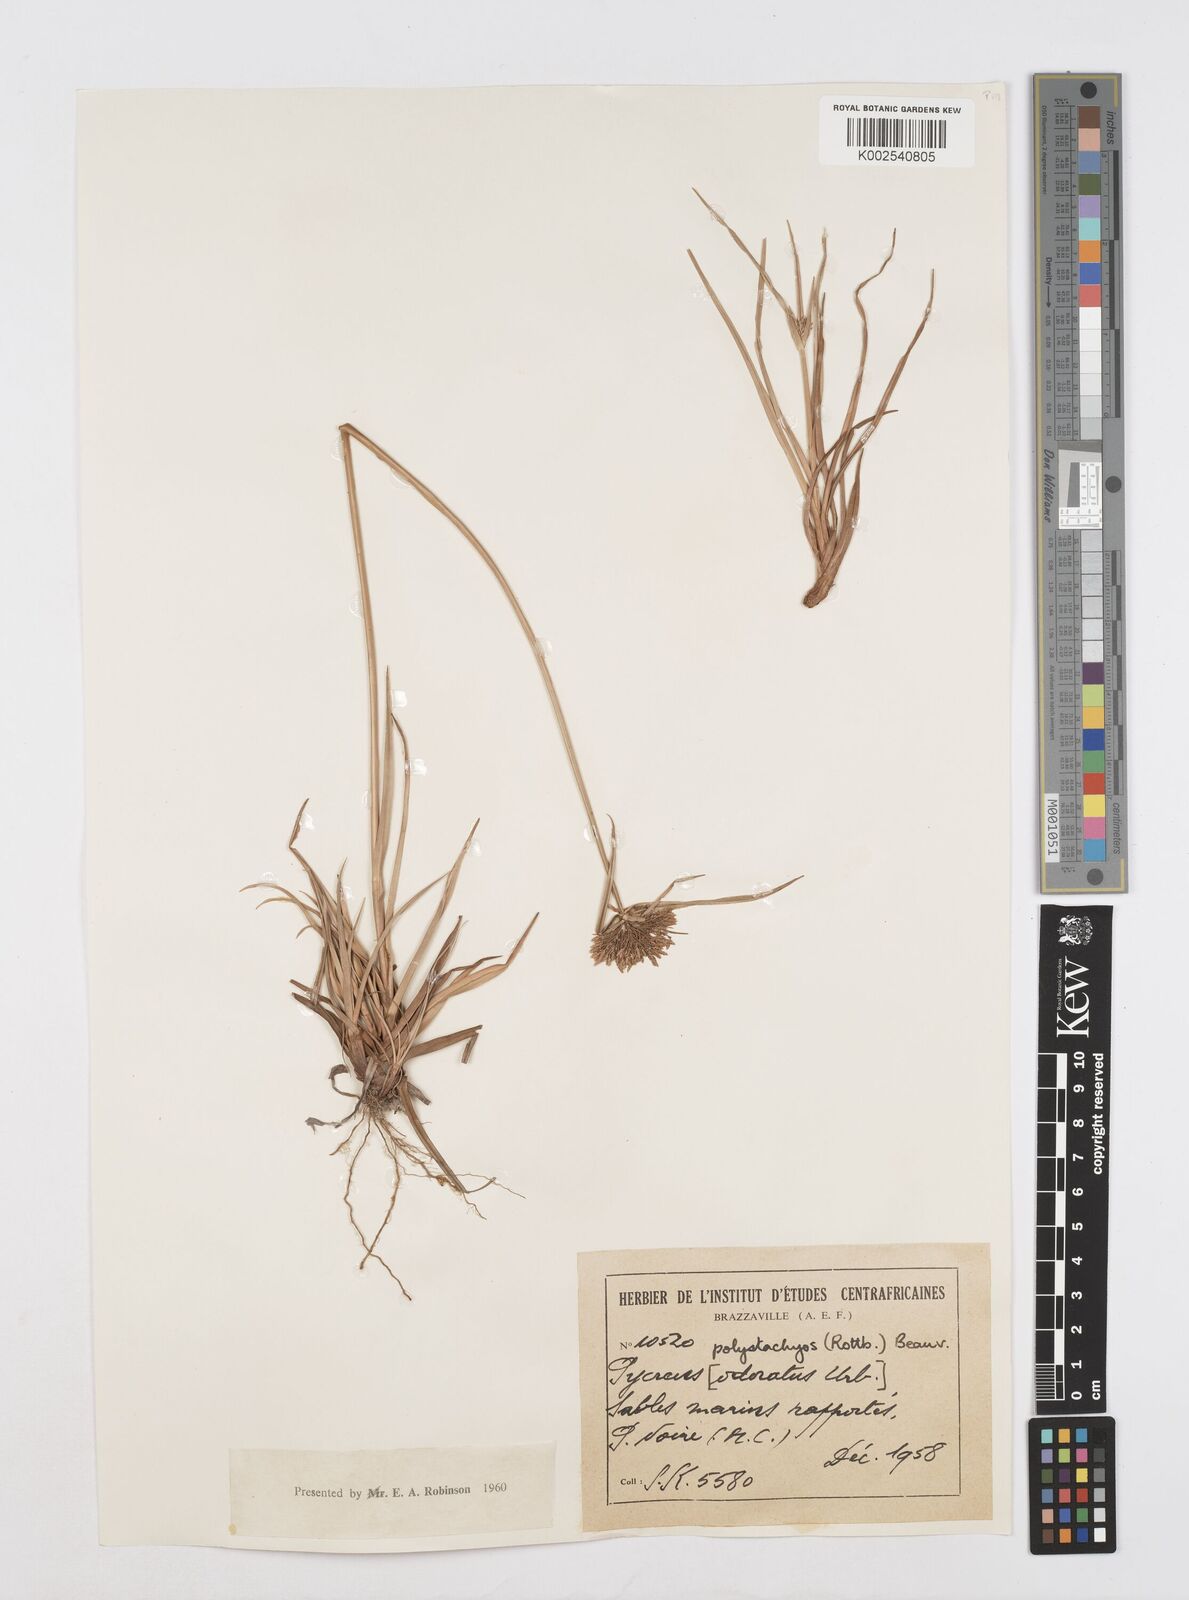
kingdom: Plantae
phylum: Tracheophyta
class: Liliopsida
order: Poales
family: Cyperaceae
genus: Cyperus
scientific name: Cyperus polystachyos
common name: Bunchy flat sedge
